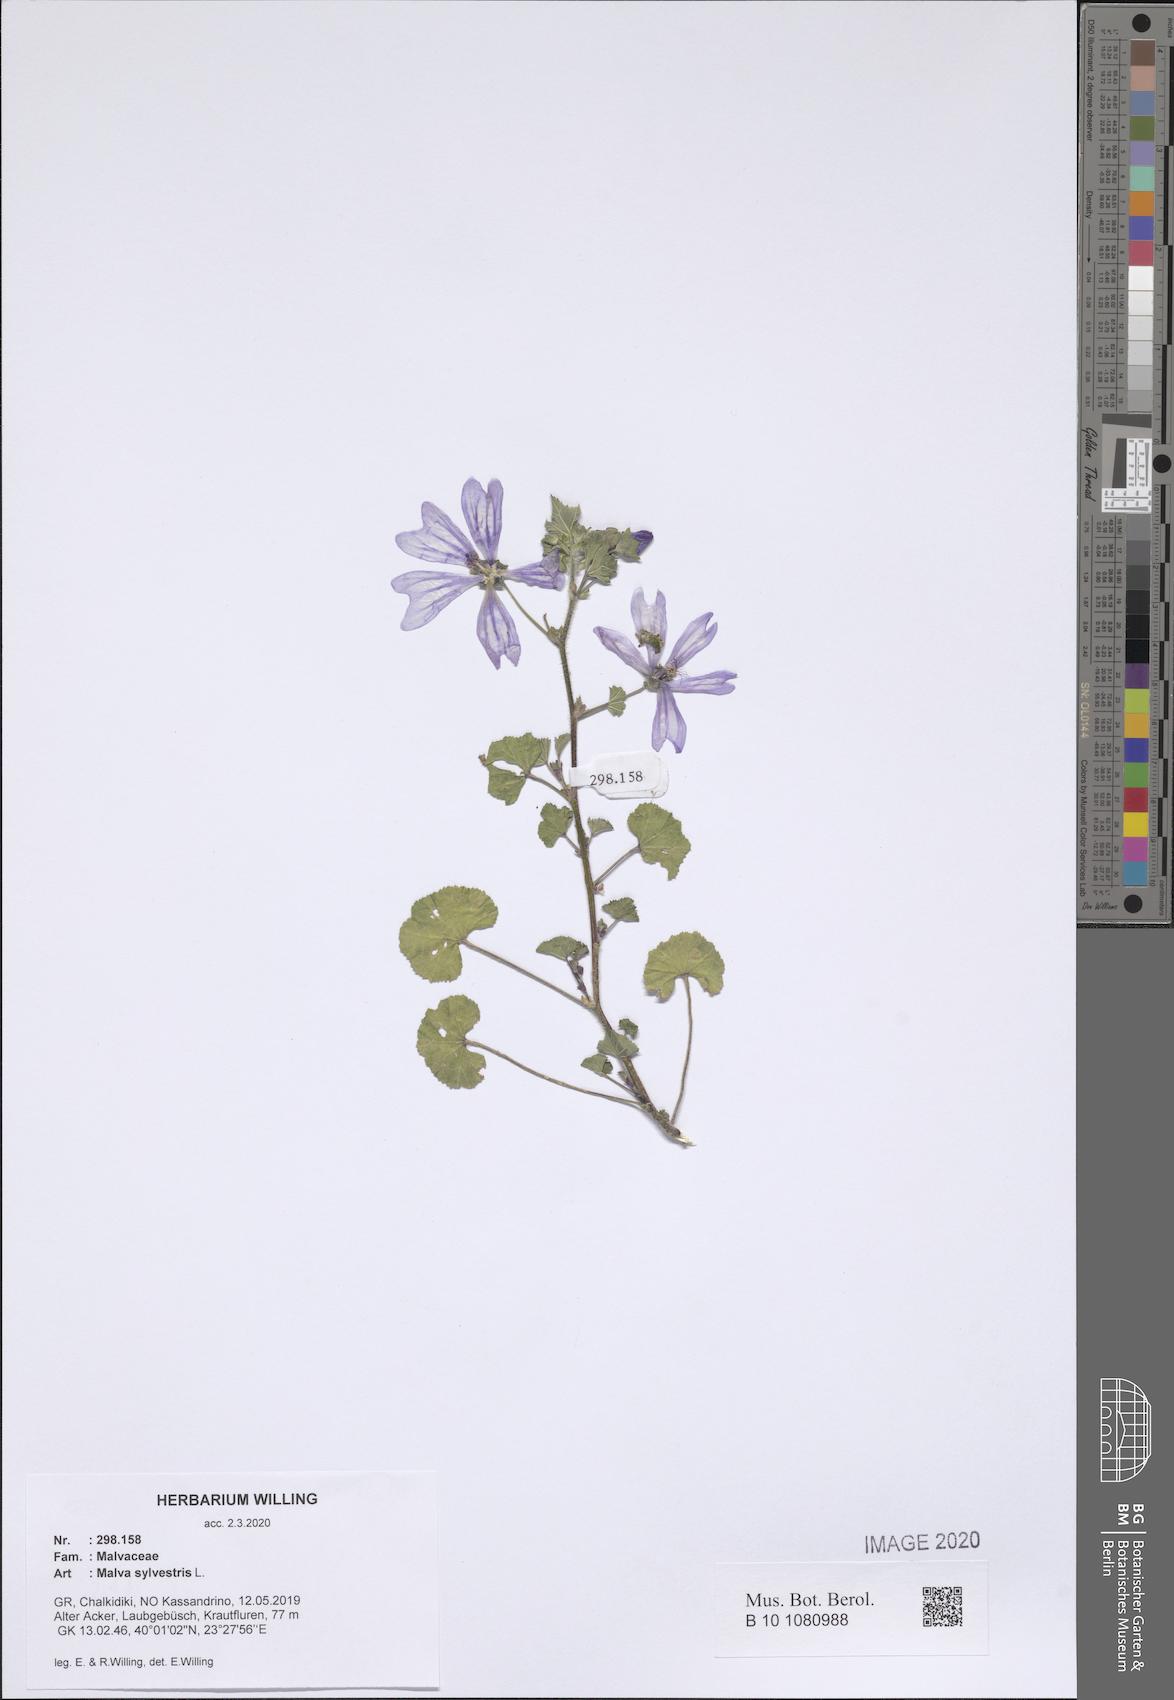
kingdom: Plantae
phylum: Tracheophyta
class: Magnoliopsida
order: Malvales
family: Malvaceae
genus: Malva
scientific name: Malva sylvestris
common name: Common mallow
